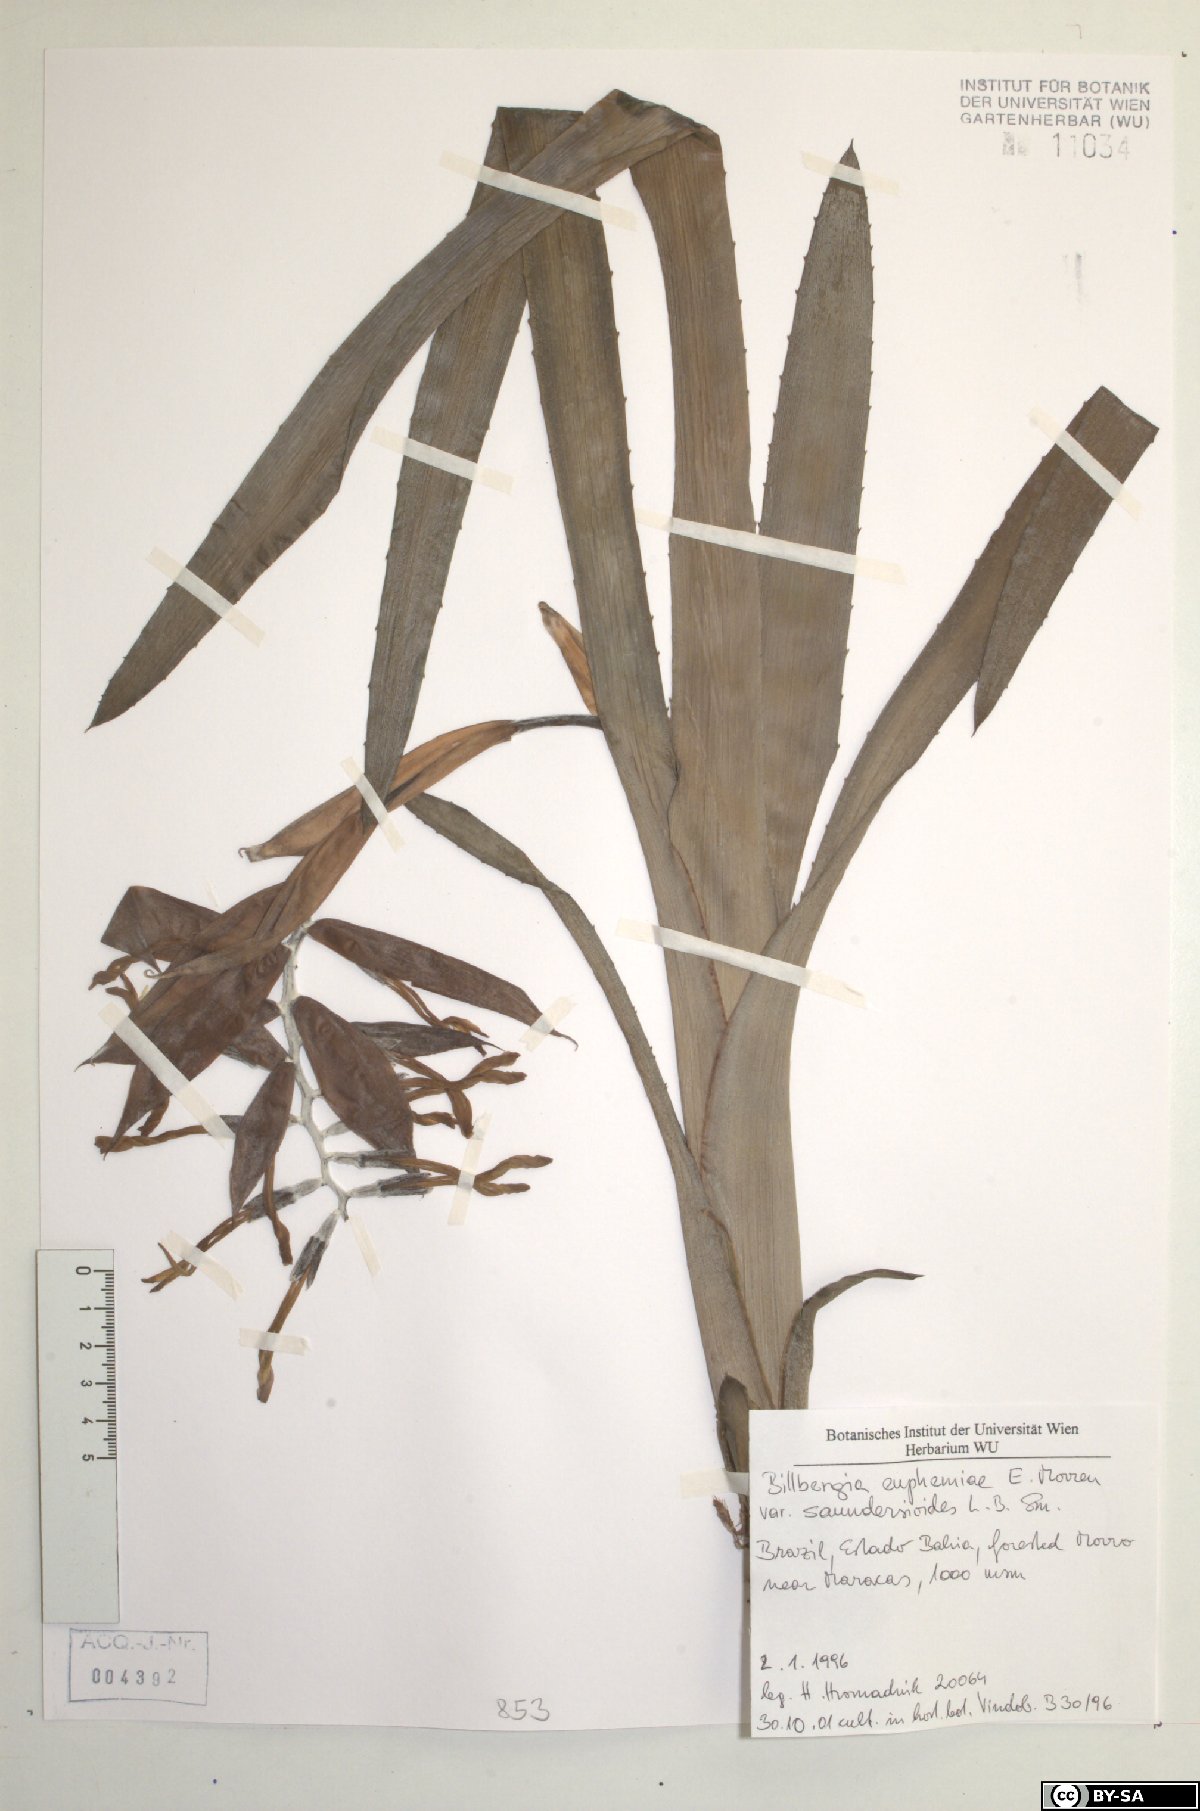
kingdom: Plantae
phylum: Tracheophyta
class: Liliopsida
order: Poales
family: Bromeliaceae
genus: Billbergia
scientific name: Billbergia euphemiae
